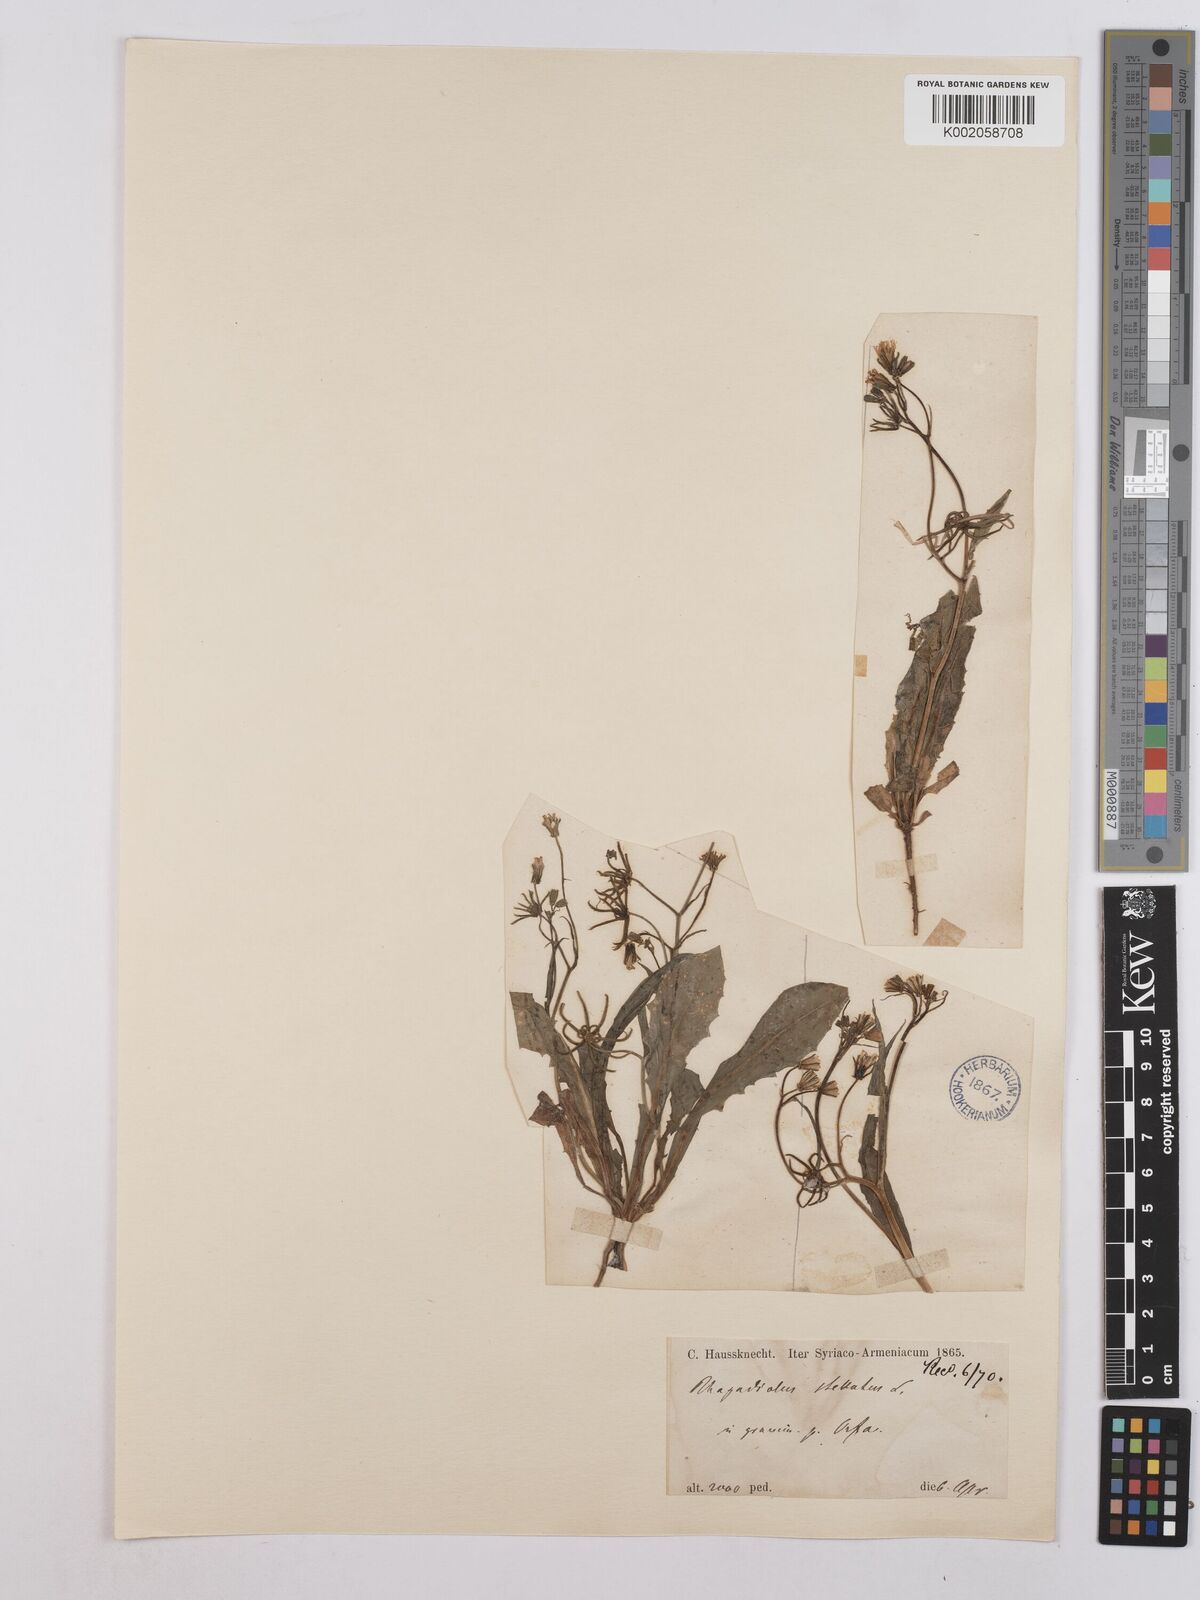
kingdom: Plantae
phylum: Tracheophyta
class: Magnoliopsida
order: Asterales
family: Asteraceae
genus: Rhagadiolus
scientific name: Rhagadiolus stellatus
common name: Star hawkbit
